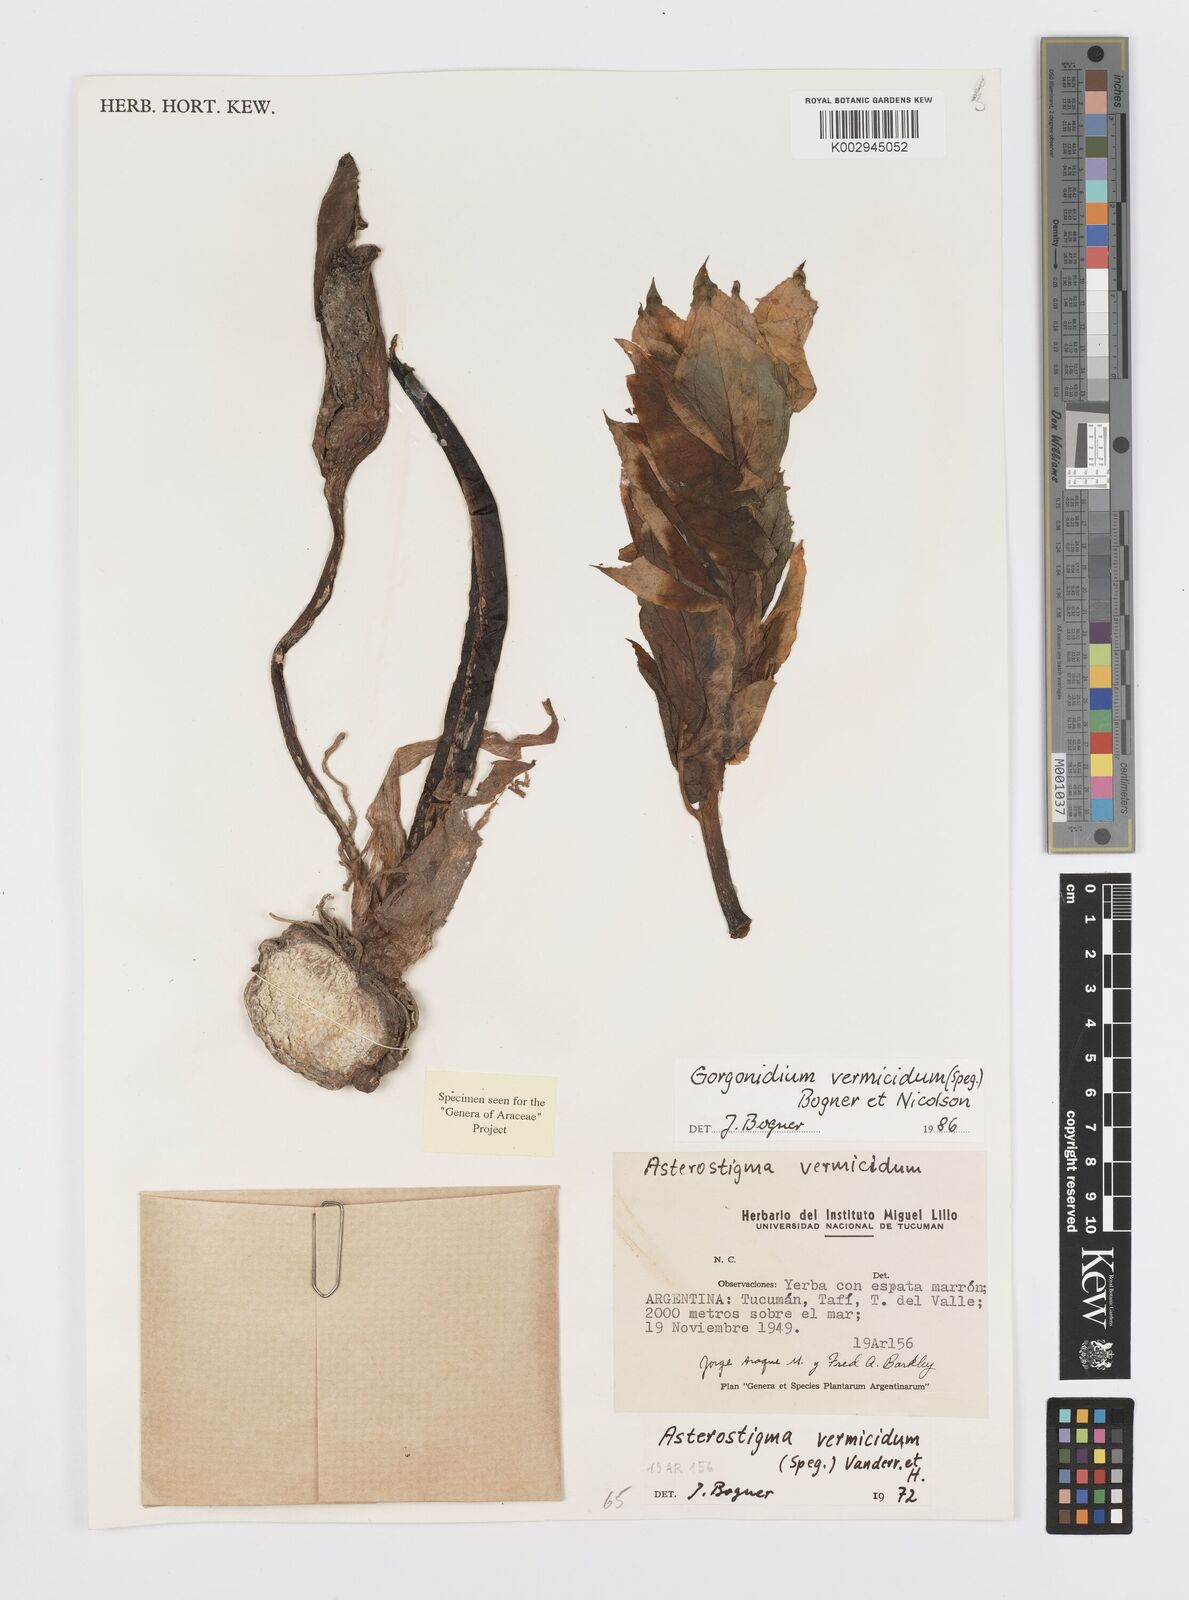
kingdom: Plantae
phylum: Tracheophyta
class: Liliopsida
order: Alismatales
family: Araceae
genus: Gorgonidium
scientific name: Gorgonidium vermicidum
